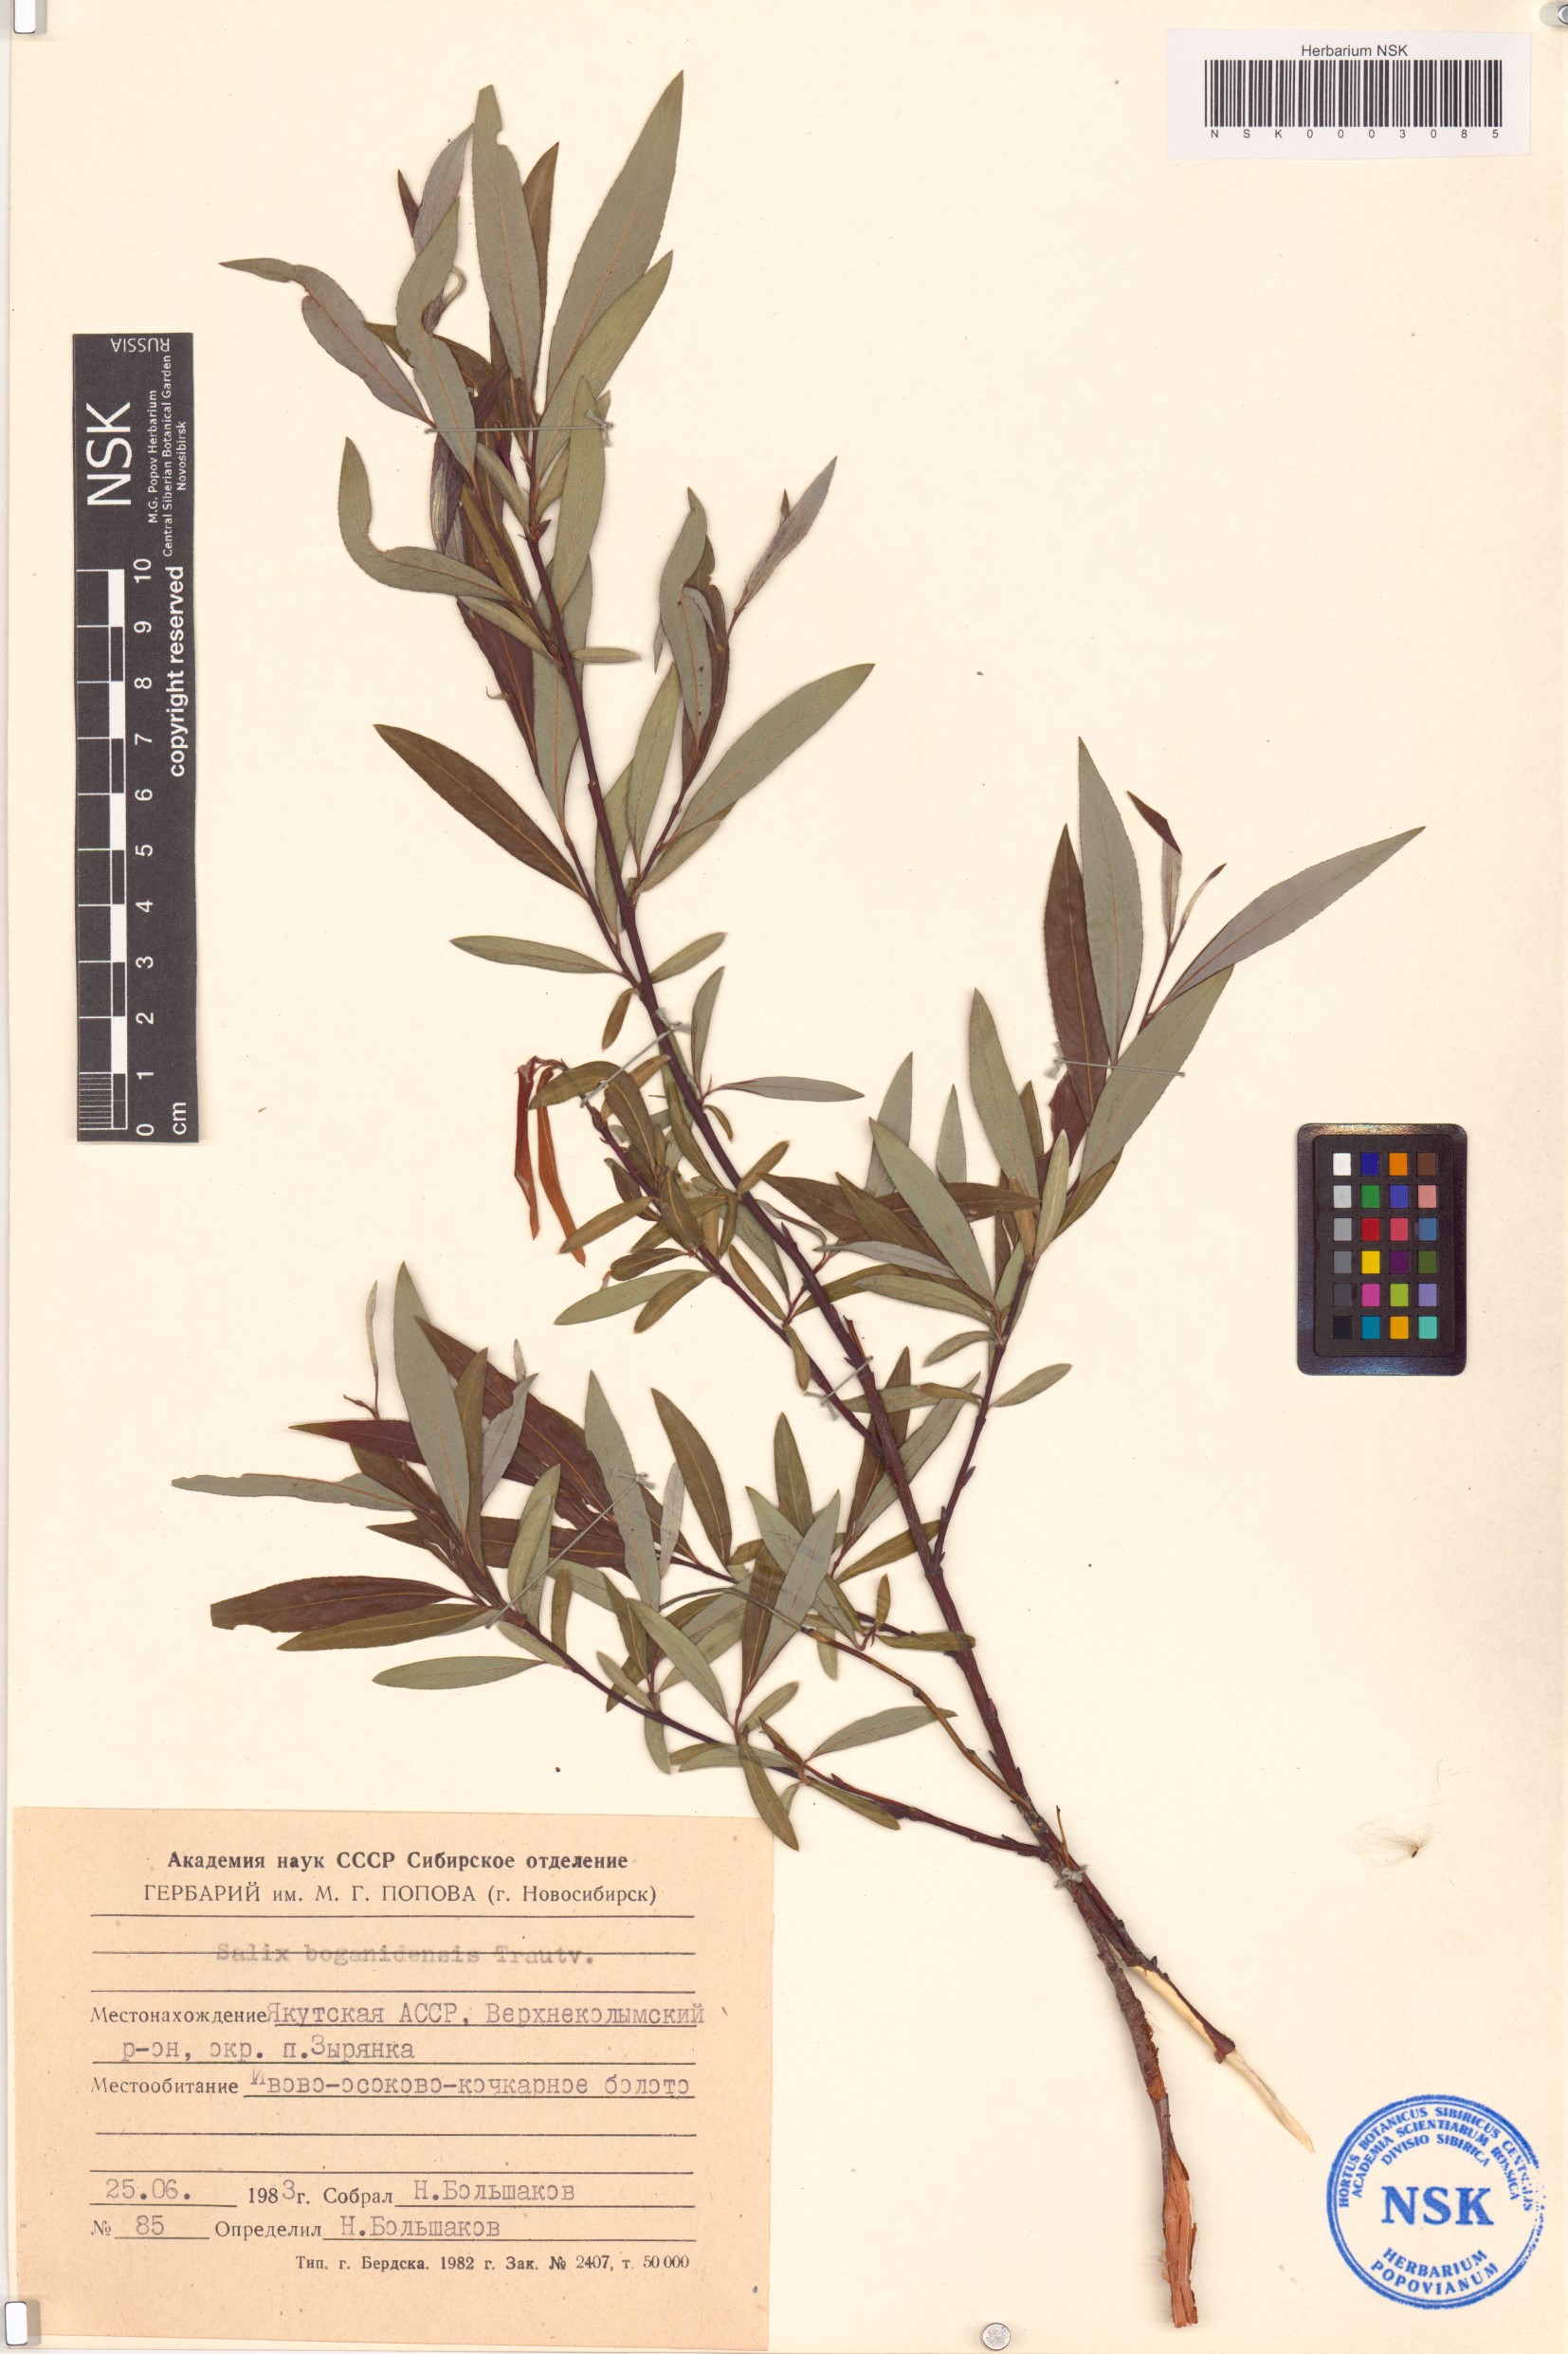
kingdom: Plantae
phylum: Tracheophyta
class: Magnoliopsida
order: Malpighiales
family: Salicaceae
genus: Salix
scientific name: Salix boganidensis
